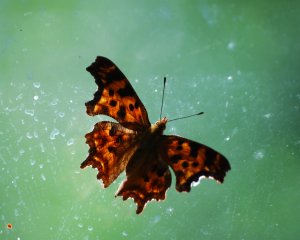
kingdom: Animalia
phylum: Arthropoda
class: Insecta
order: Lepidoptera
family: Nymphalidae
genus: Polygonia
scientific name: Polygonia satyrus
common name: Satyr Comma
